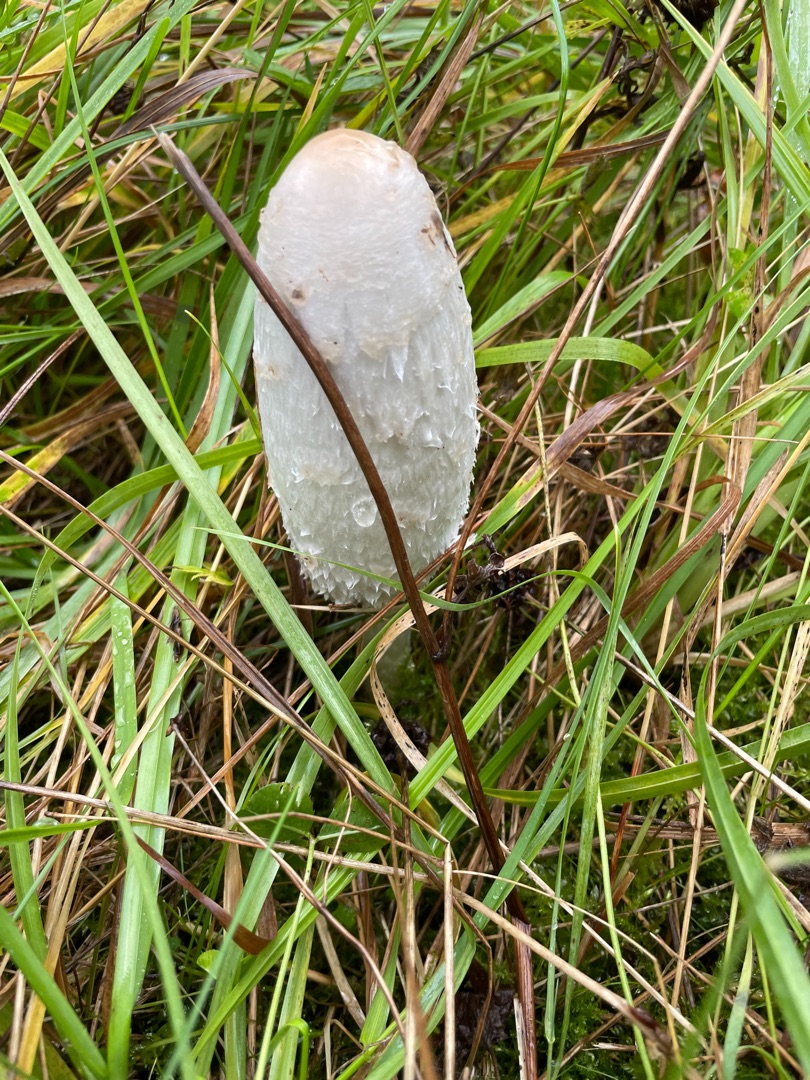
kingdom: Fungi
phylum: Basidiomycota
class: Agaricomycetes
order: Agaricales
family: Agaricaceae
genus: Coprinus
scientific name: Coprinus comatus
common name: Stor parykhat
